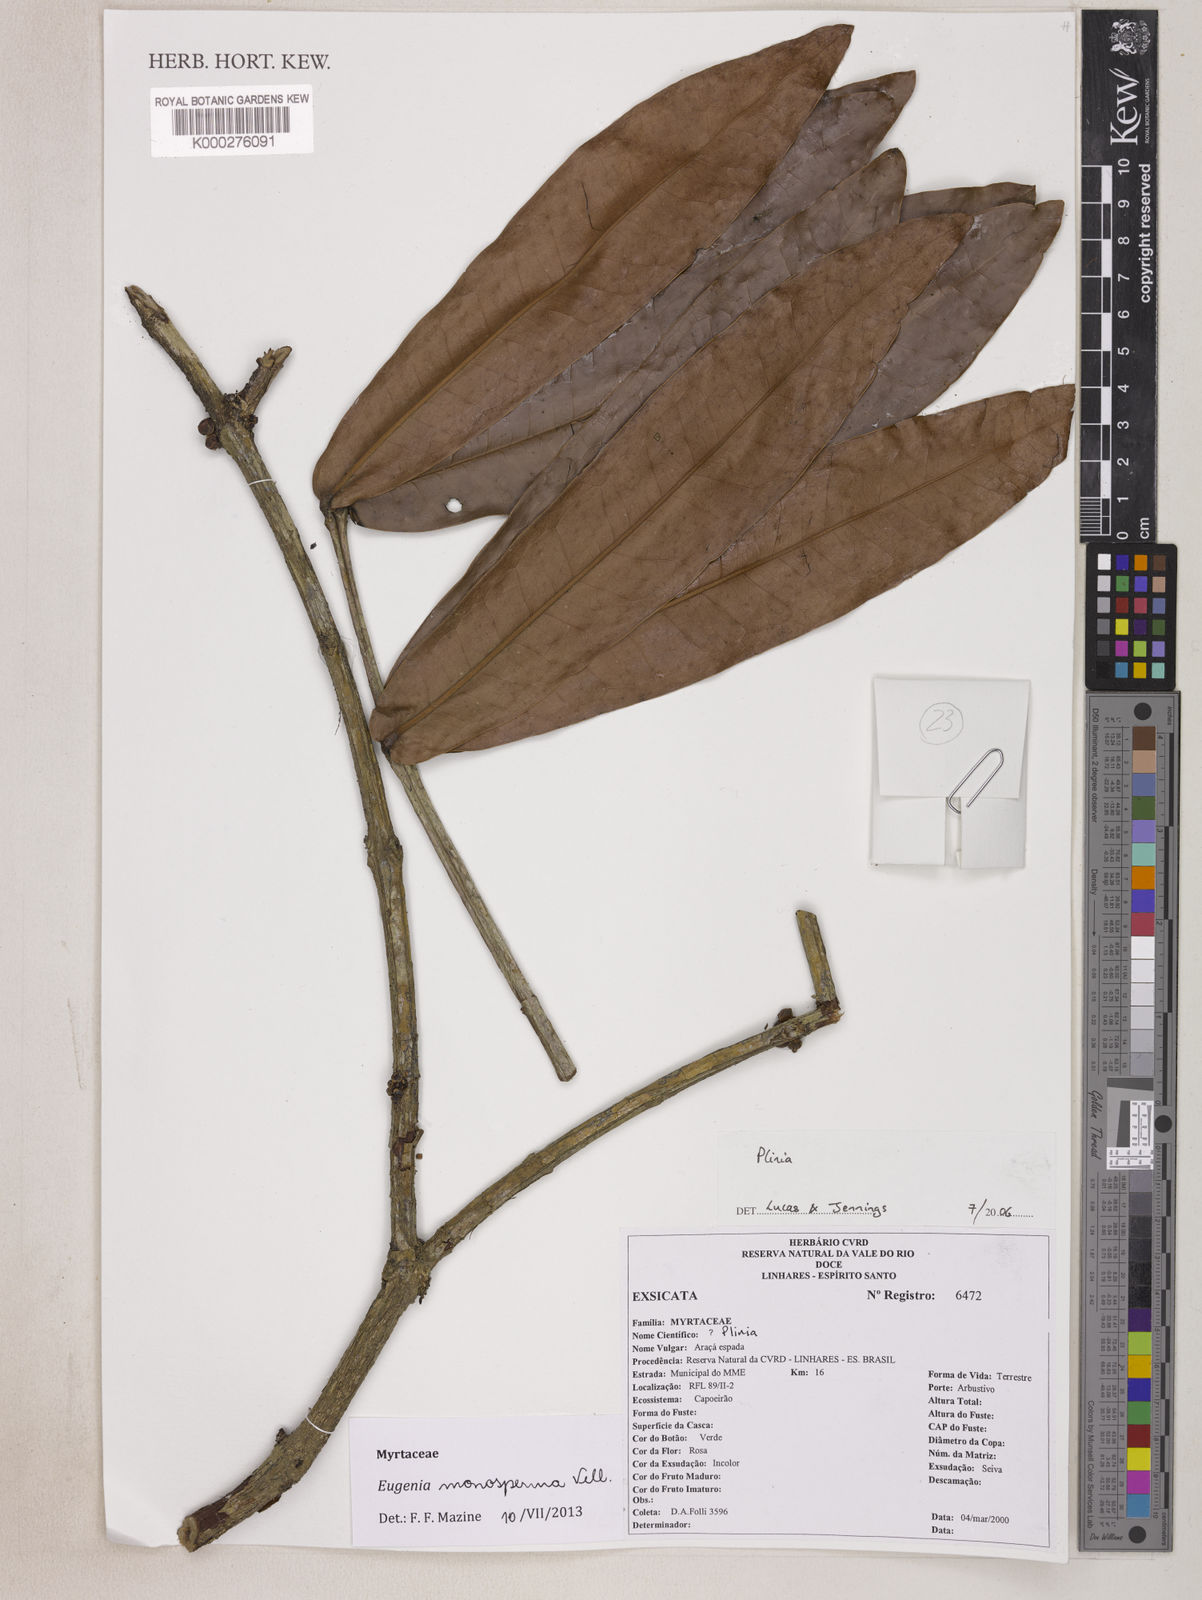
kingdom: Plantae
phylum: Tracheophyta
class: Magnoliopsida
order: Myrtales
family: Myrtaceae
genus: Plinia
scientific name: Plinia
